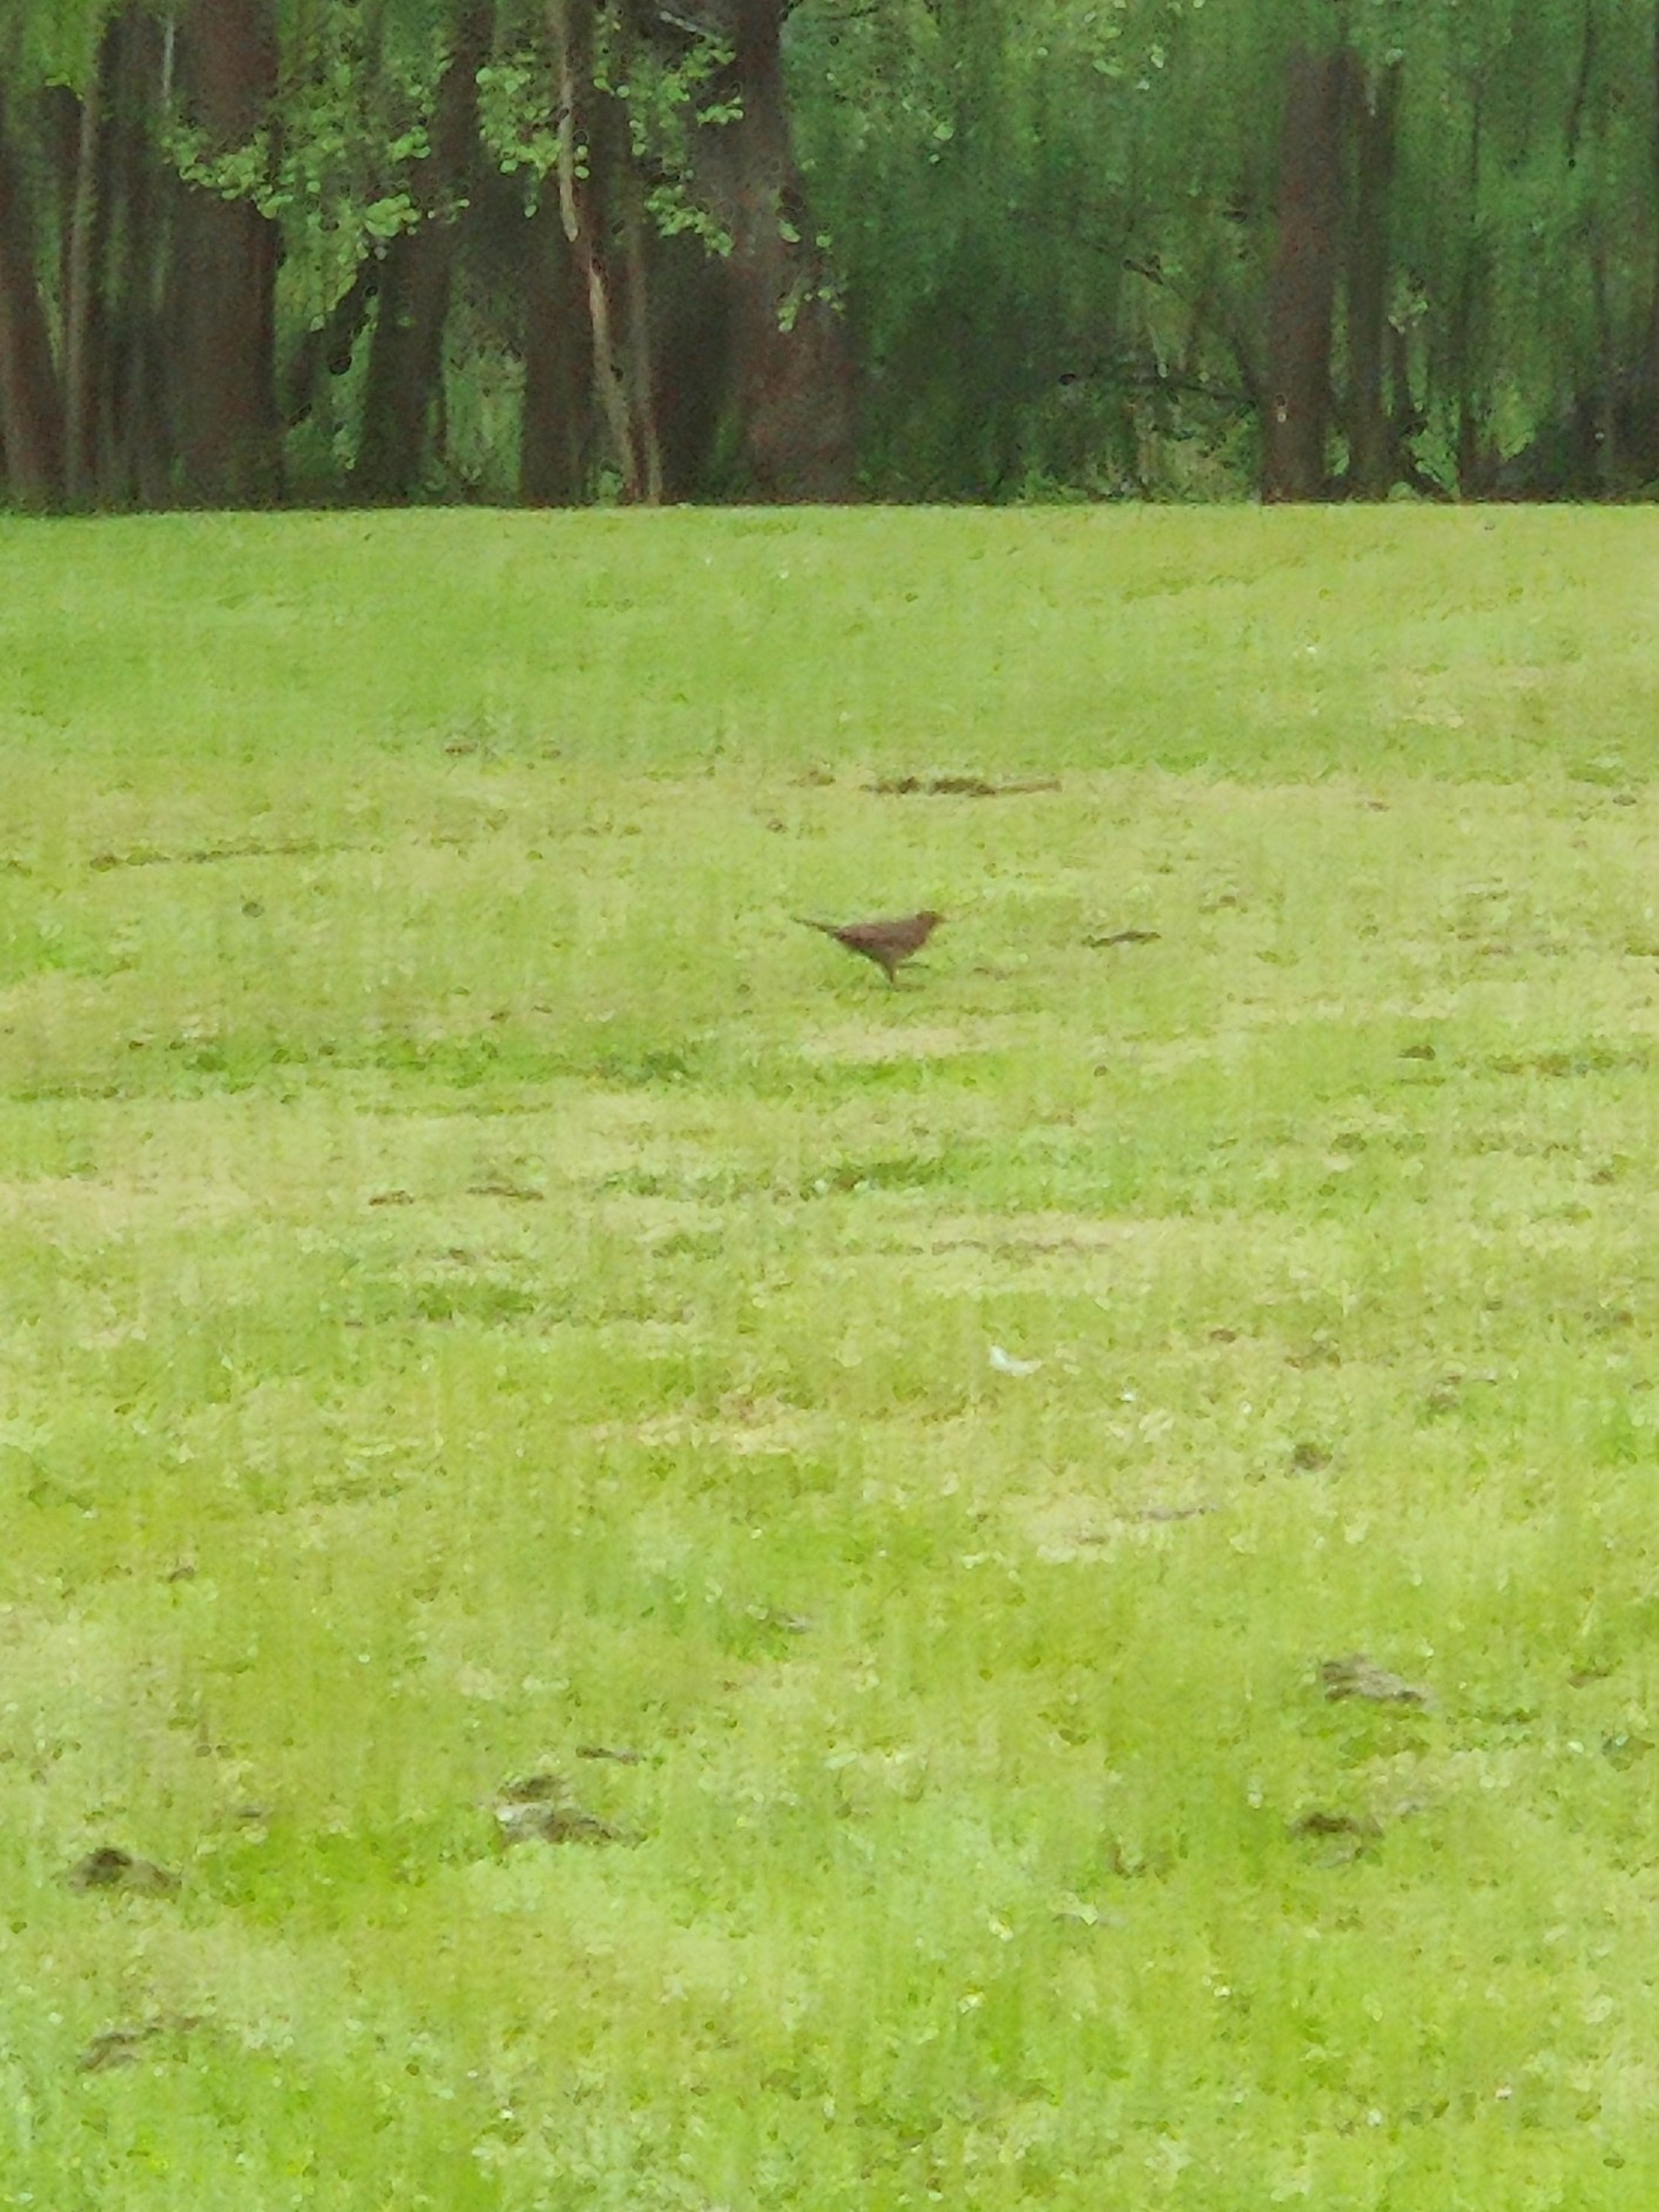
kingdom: Animalia
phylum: Chordata
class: Aves
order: Passeriformes
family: Turdidae
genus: Turdus
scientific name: Turdus merula
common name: Solsort
